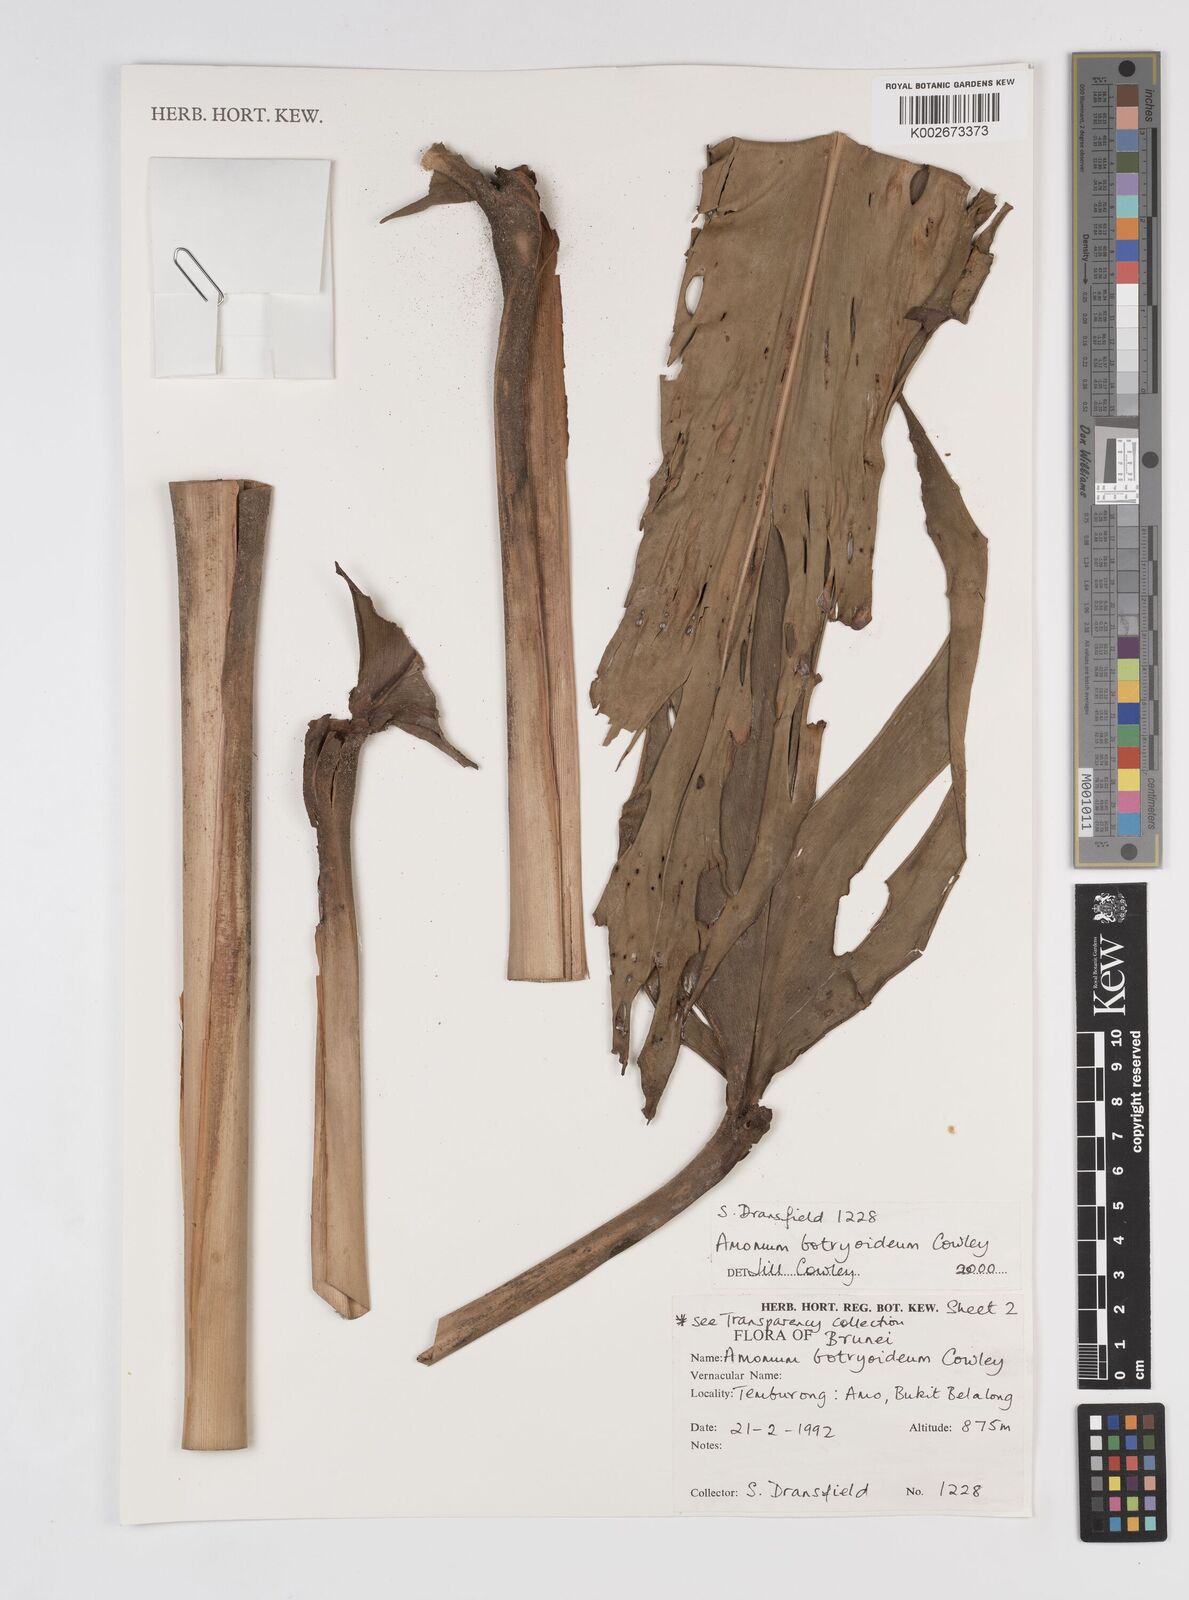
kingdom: Plantae
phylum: Tracheophyta
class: Liliopsida
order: Zingiberales
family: Zingiberaceae
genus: Meistera
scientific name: Meistera botryoidea
